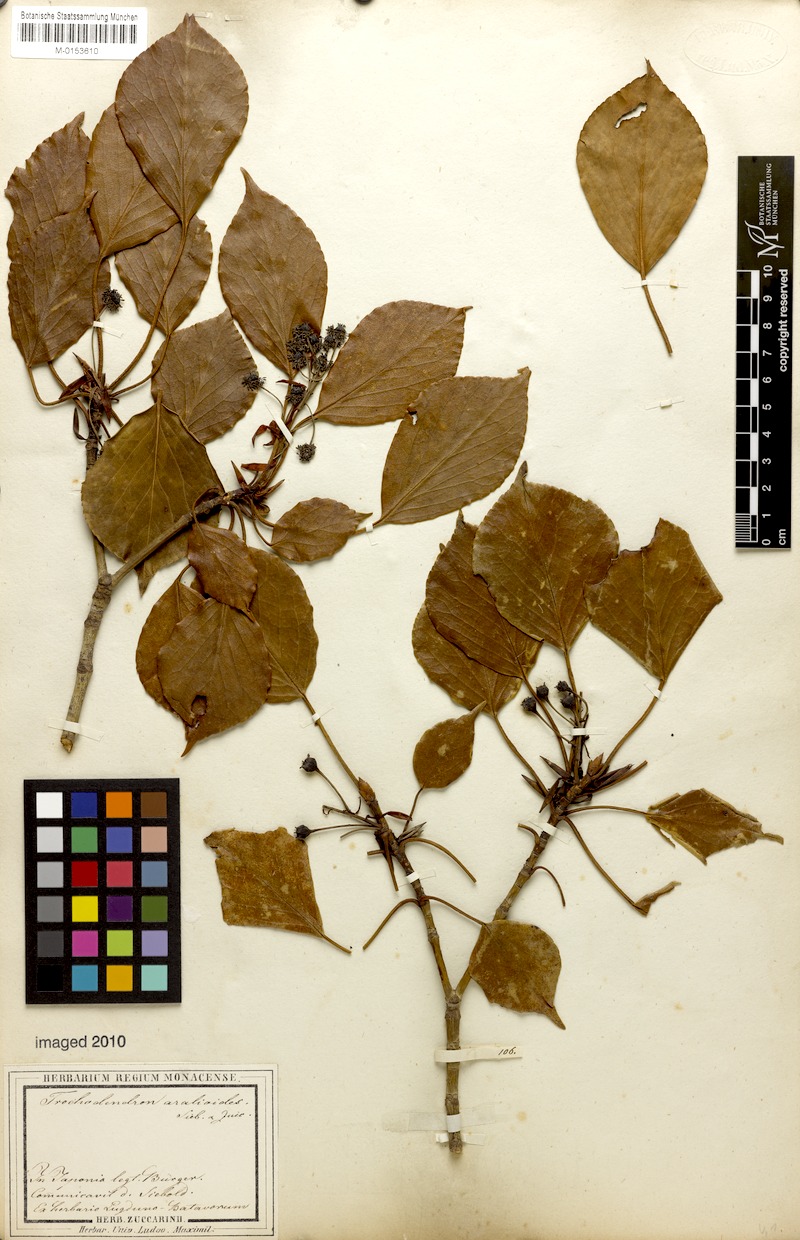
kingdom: Plantae
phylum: Tracheophyta
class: Magnoliopsida
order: Trochodendrales
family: Trochodendraceae
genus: Trochodendron
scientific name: Trochodendron aralioides
